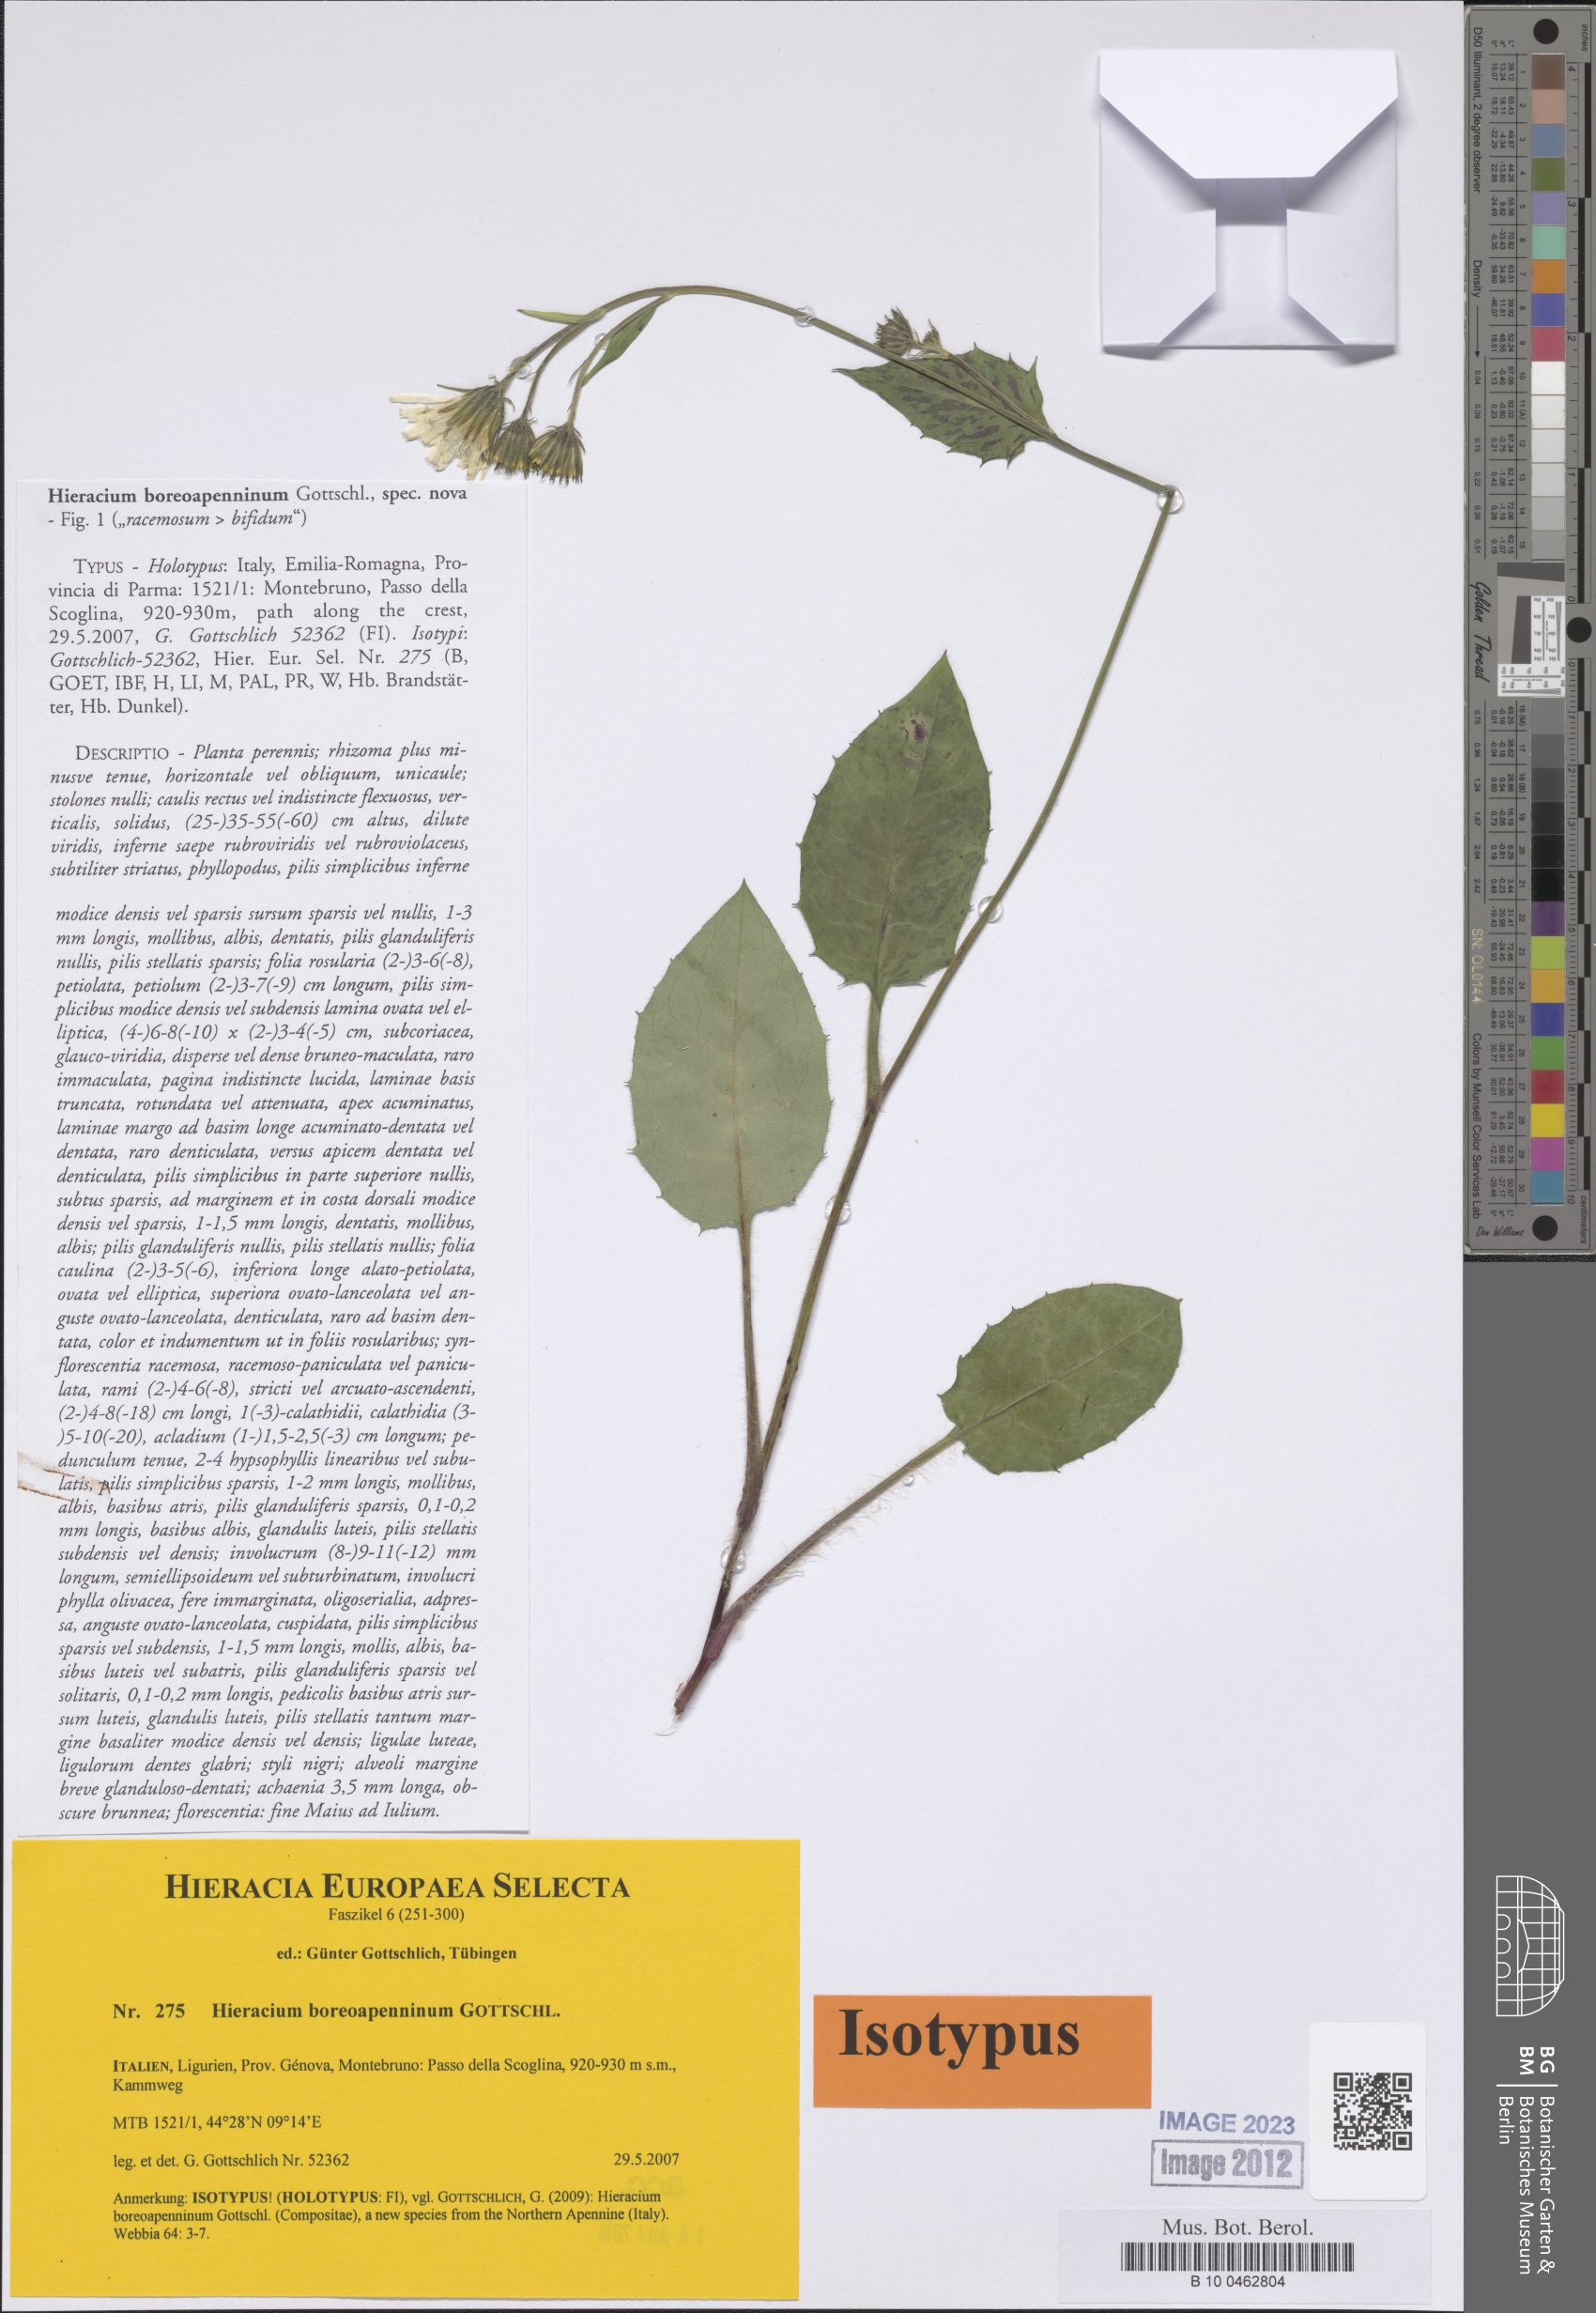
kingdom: Plantae
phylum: Tracheophyta
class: Magnoliopsida
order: Asterales
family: Asteraceae
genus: Hieracium
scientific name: Hieracium boreoapenninum
